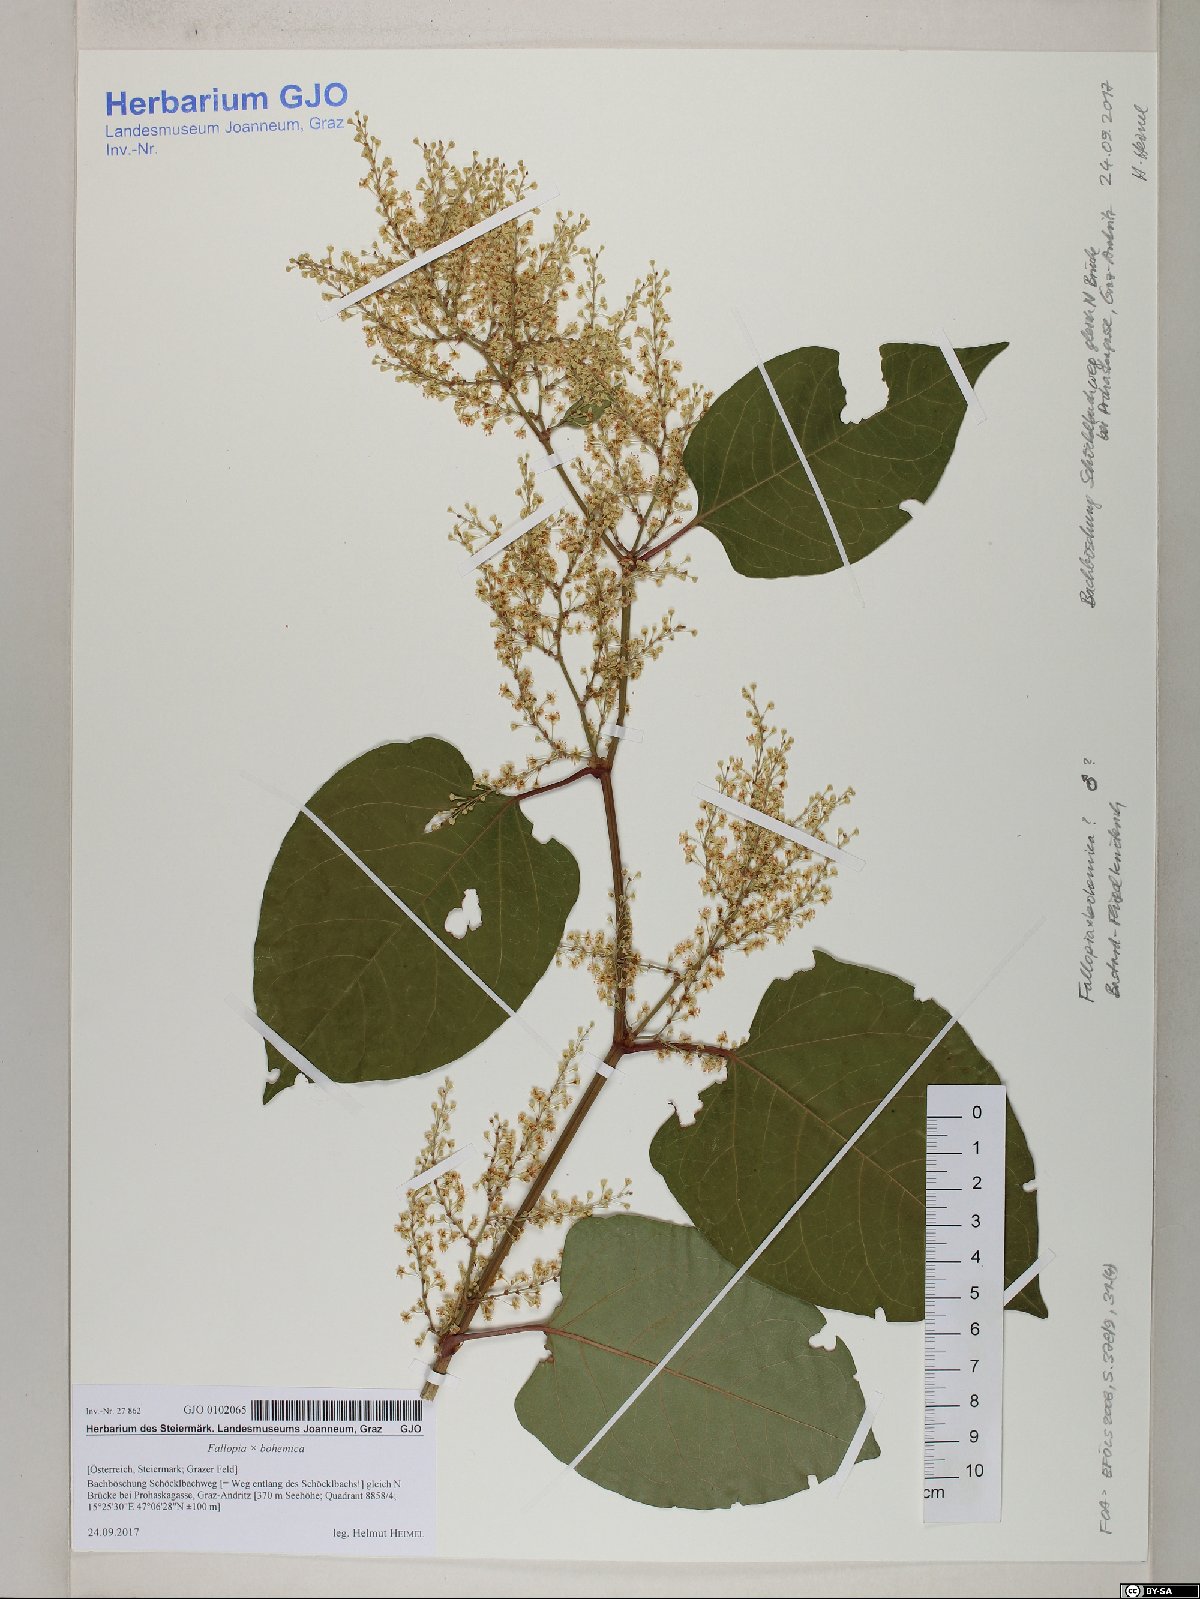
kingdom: Plantae
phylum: Tracheophyta
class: Magnoliopsida
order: Caryophyllales
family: Polygonaceae
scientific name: Polygonaceae
